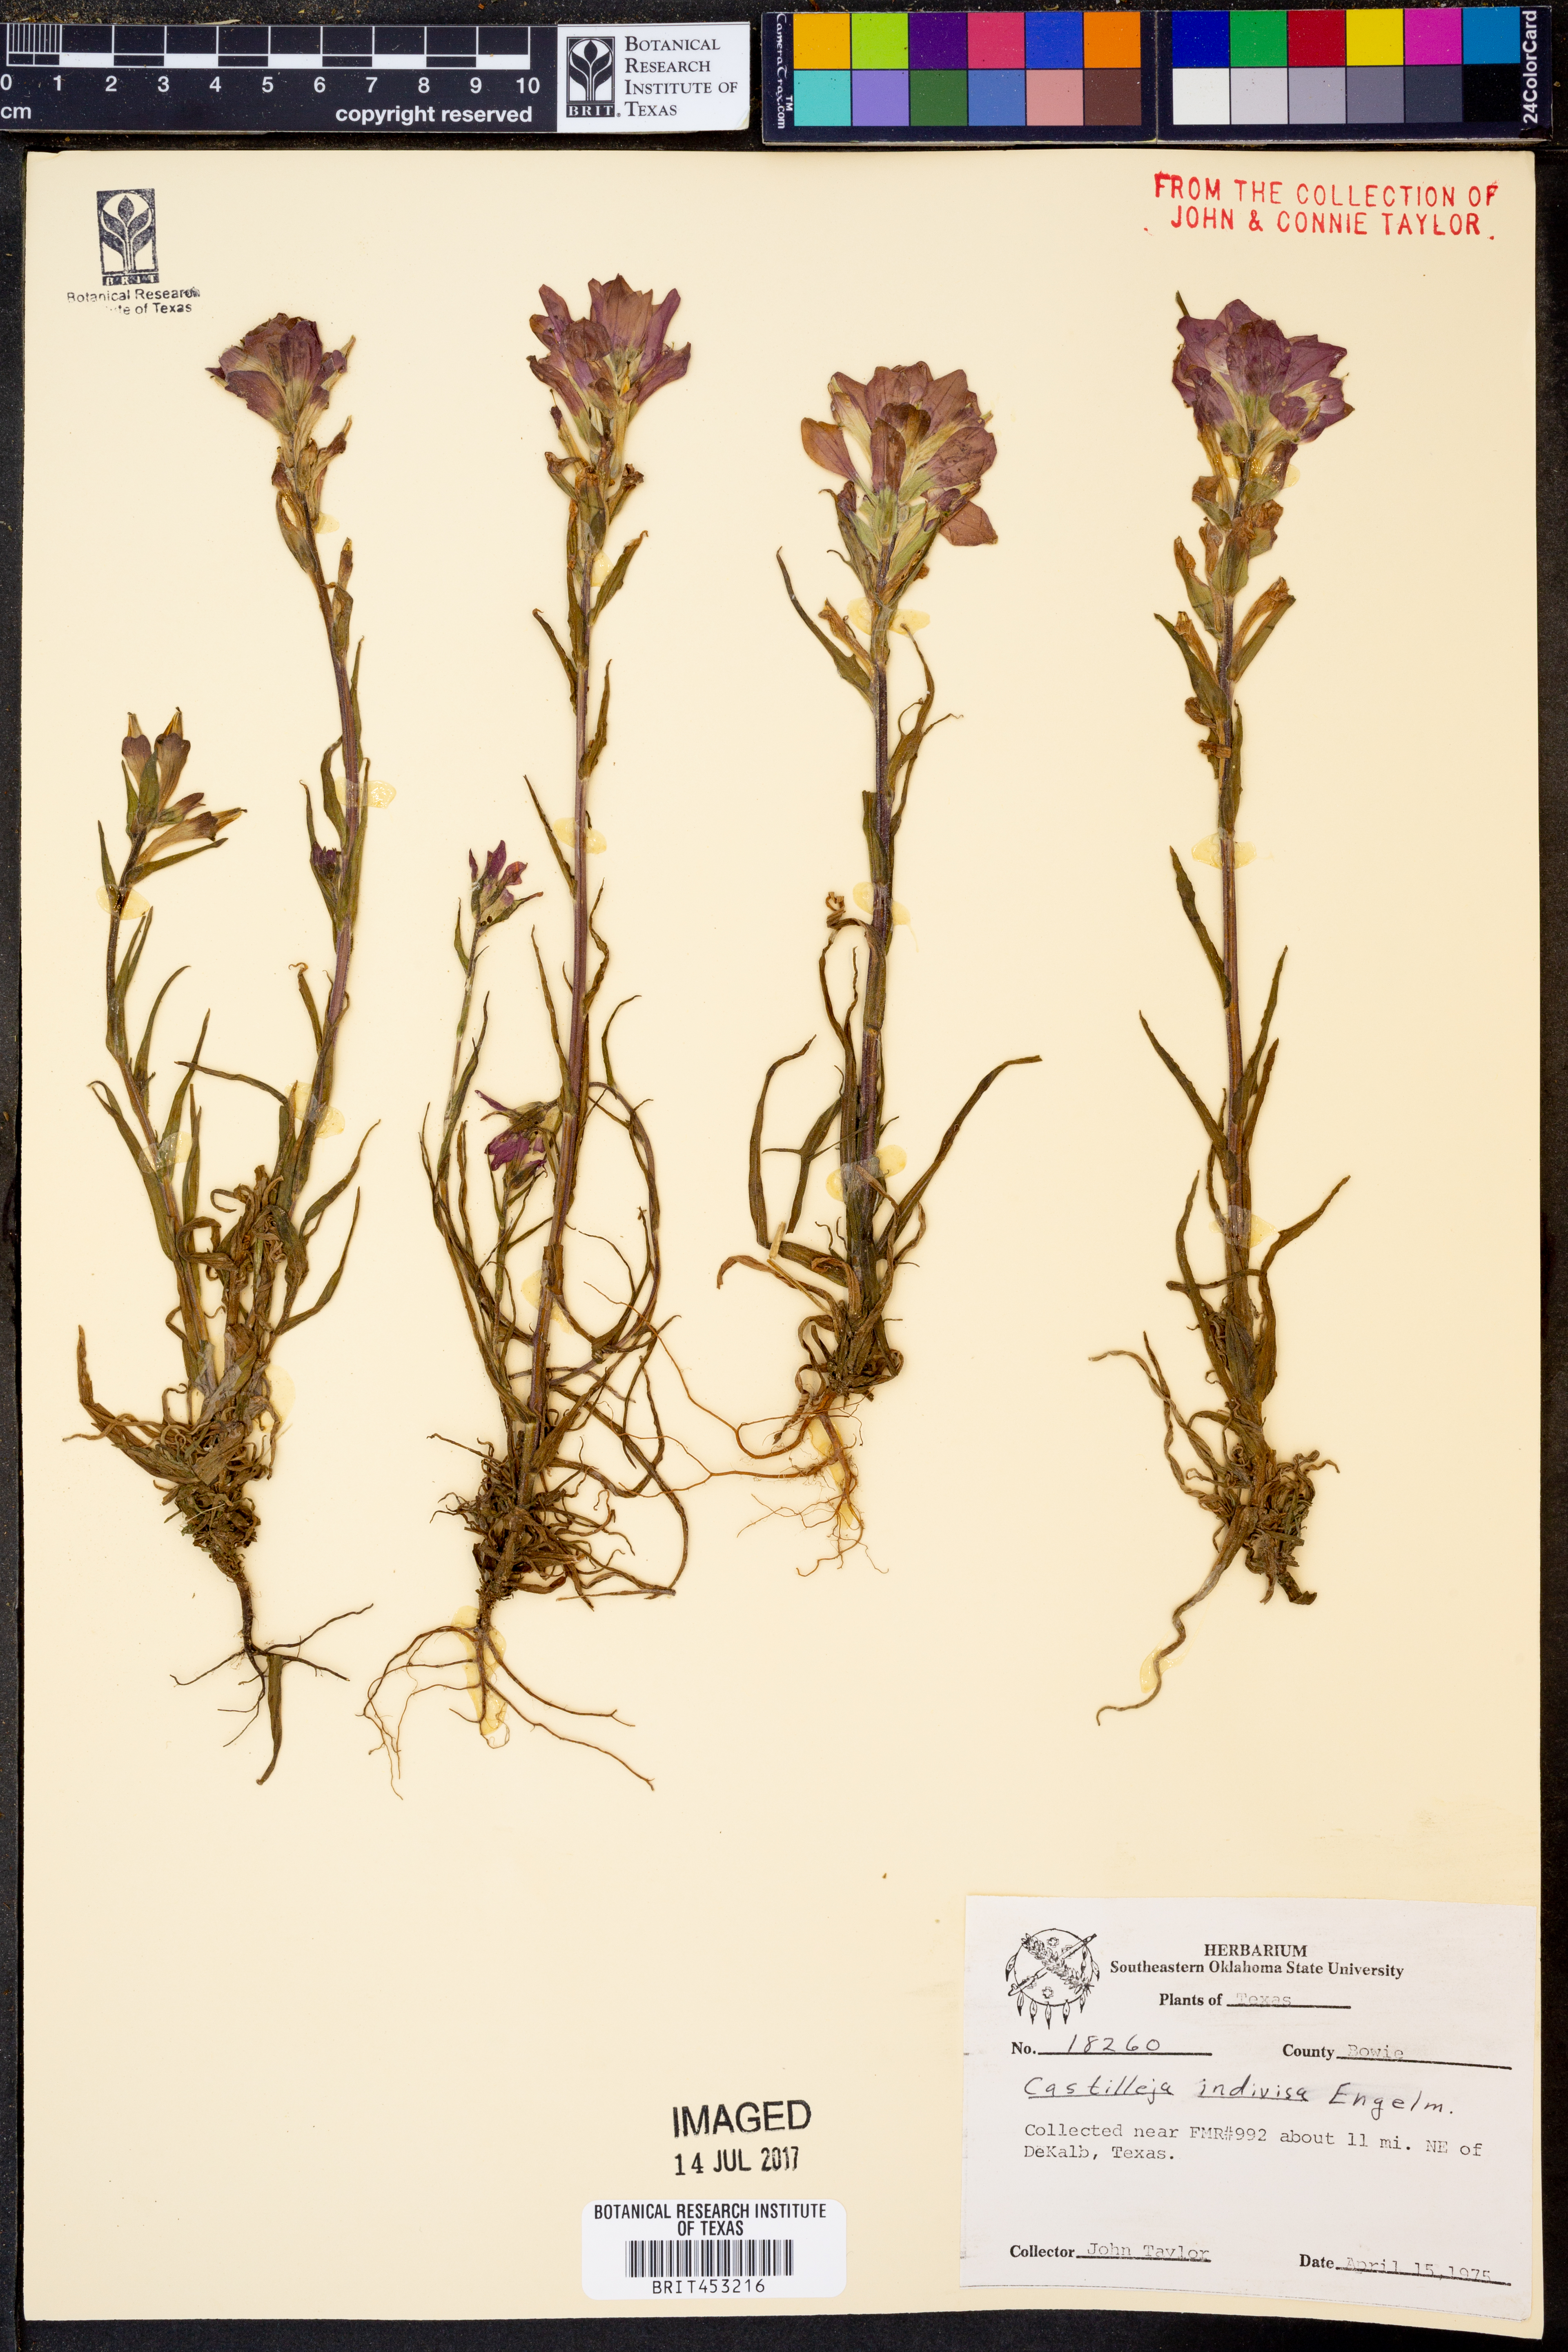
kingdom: Plantae
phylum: Tracheophyta
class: Magnoliopsida
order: Lamiales
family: Orobanchaceae
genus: Castilleja
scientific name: Castilleja indivisa
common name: Texas paintbrush
